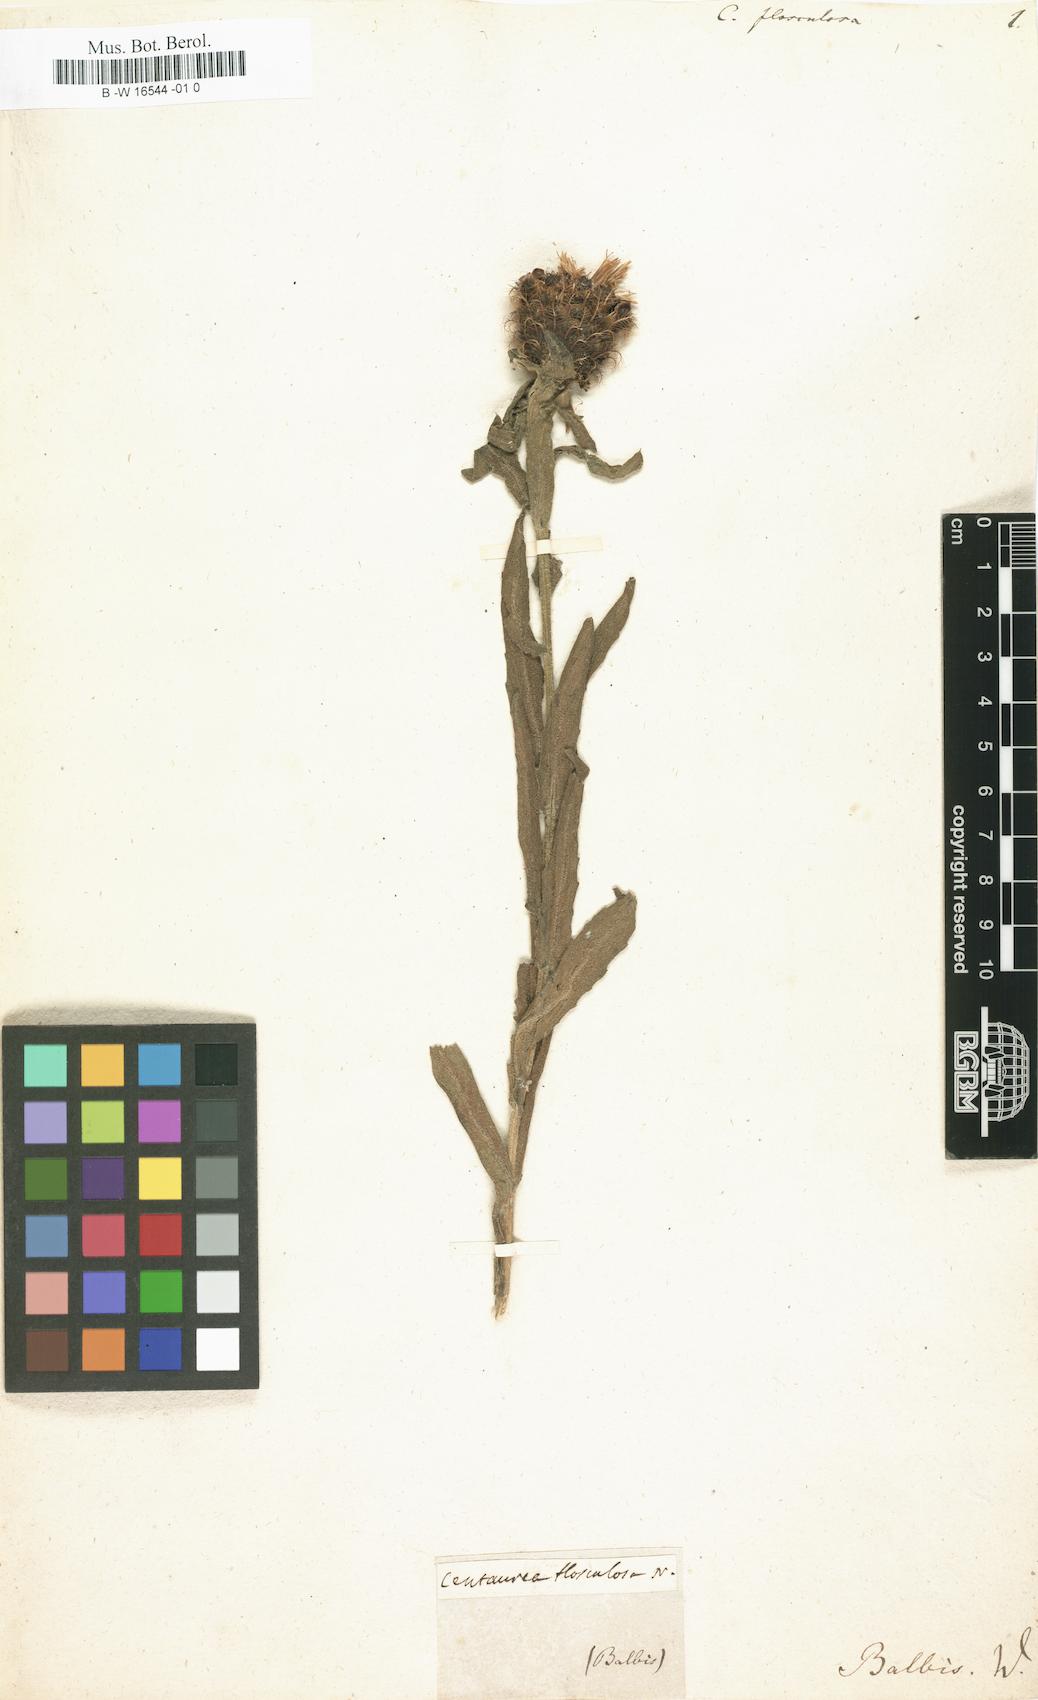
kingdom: Plantae
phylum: Tracheophyta
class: Magnoliopsida
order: Asterales
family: Asteraceae
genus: Centaurea
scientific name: Centaurea flosculosa
